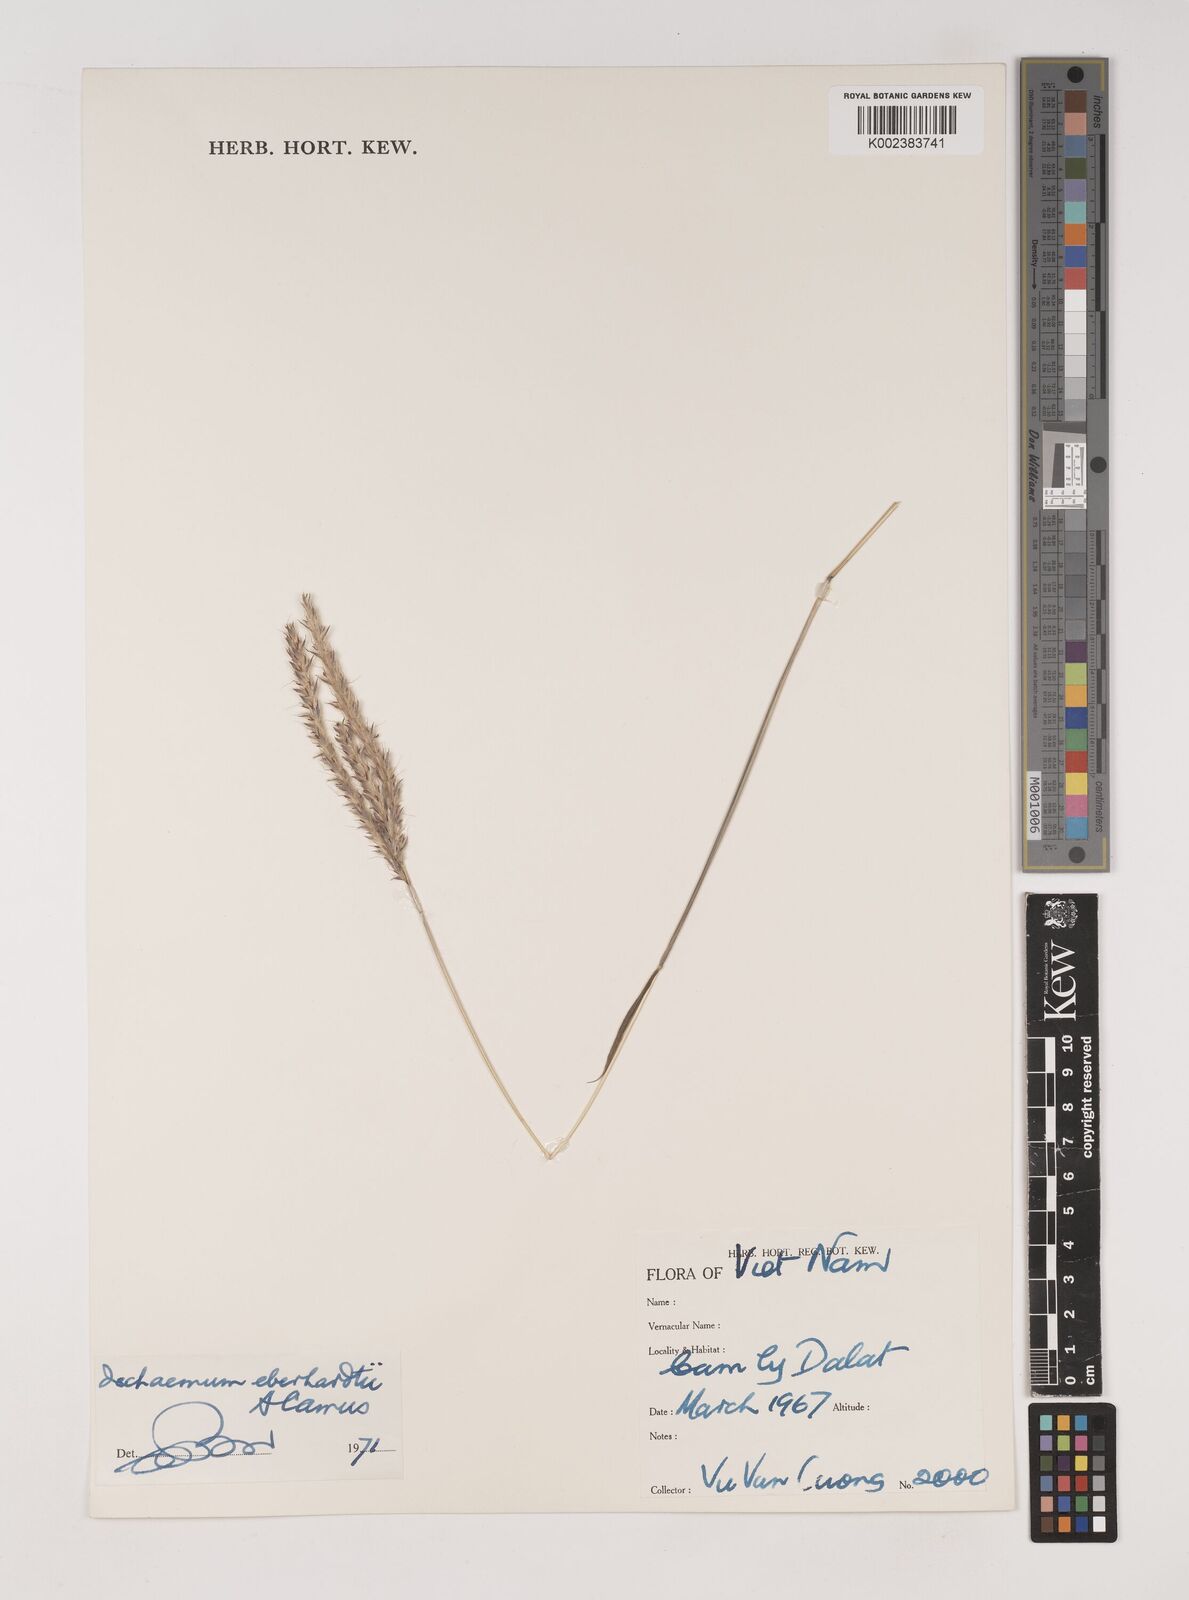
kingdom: Plantae
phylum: Tracheophyta
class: Liliopsida
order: Poales
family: Poaceae
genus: Ischaemum
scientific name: Ischaemum eberhardtii
